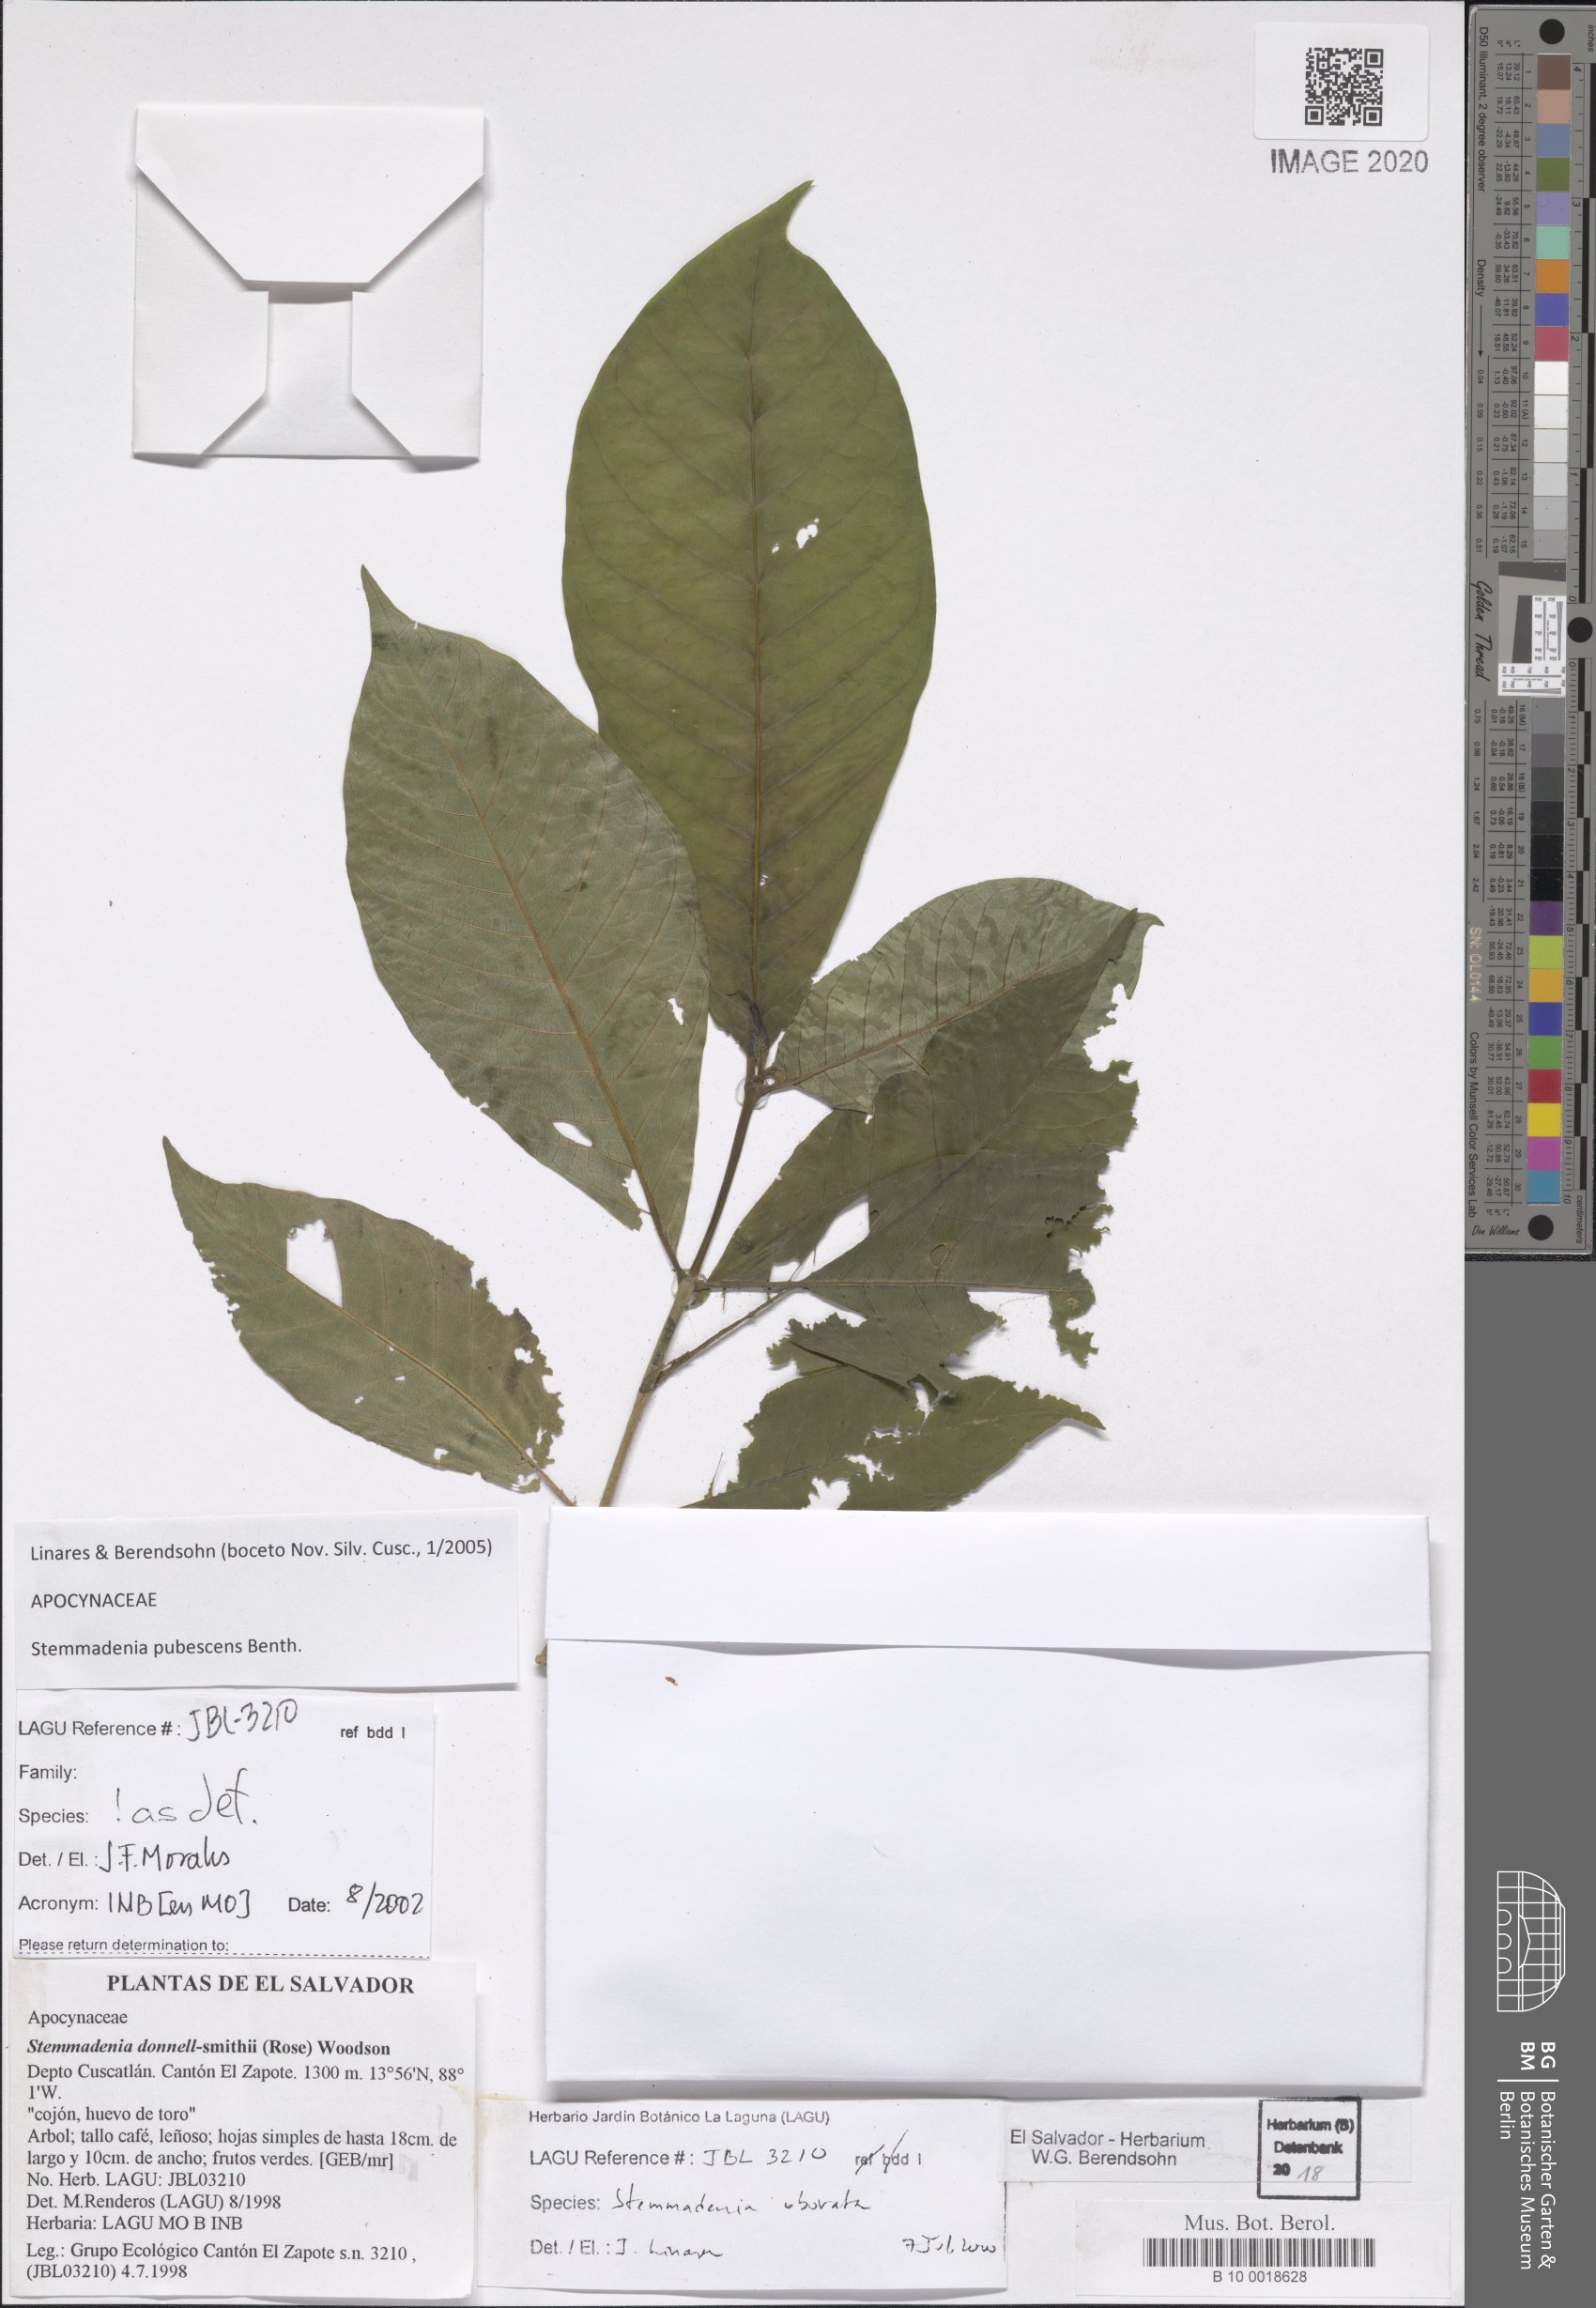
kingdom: Plantae
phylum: Tracheophyta
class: Magnoliopsida
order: Gentianales
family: Apocynaceae
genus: Tabernaemontana
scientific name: Tabernaemontana glabra
